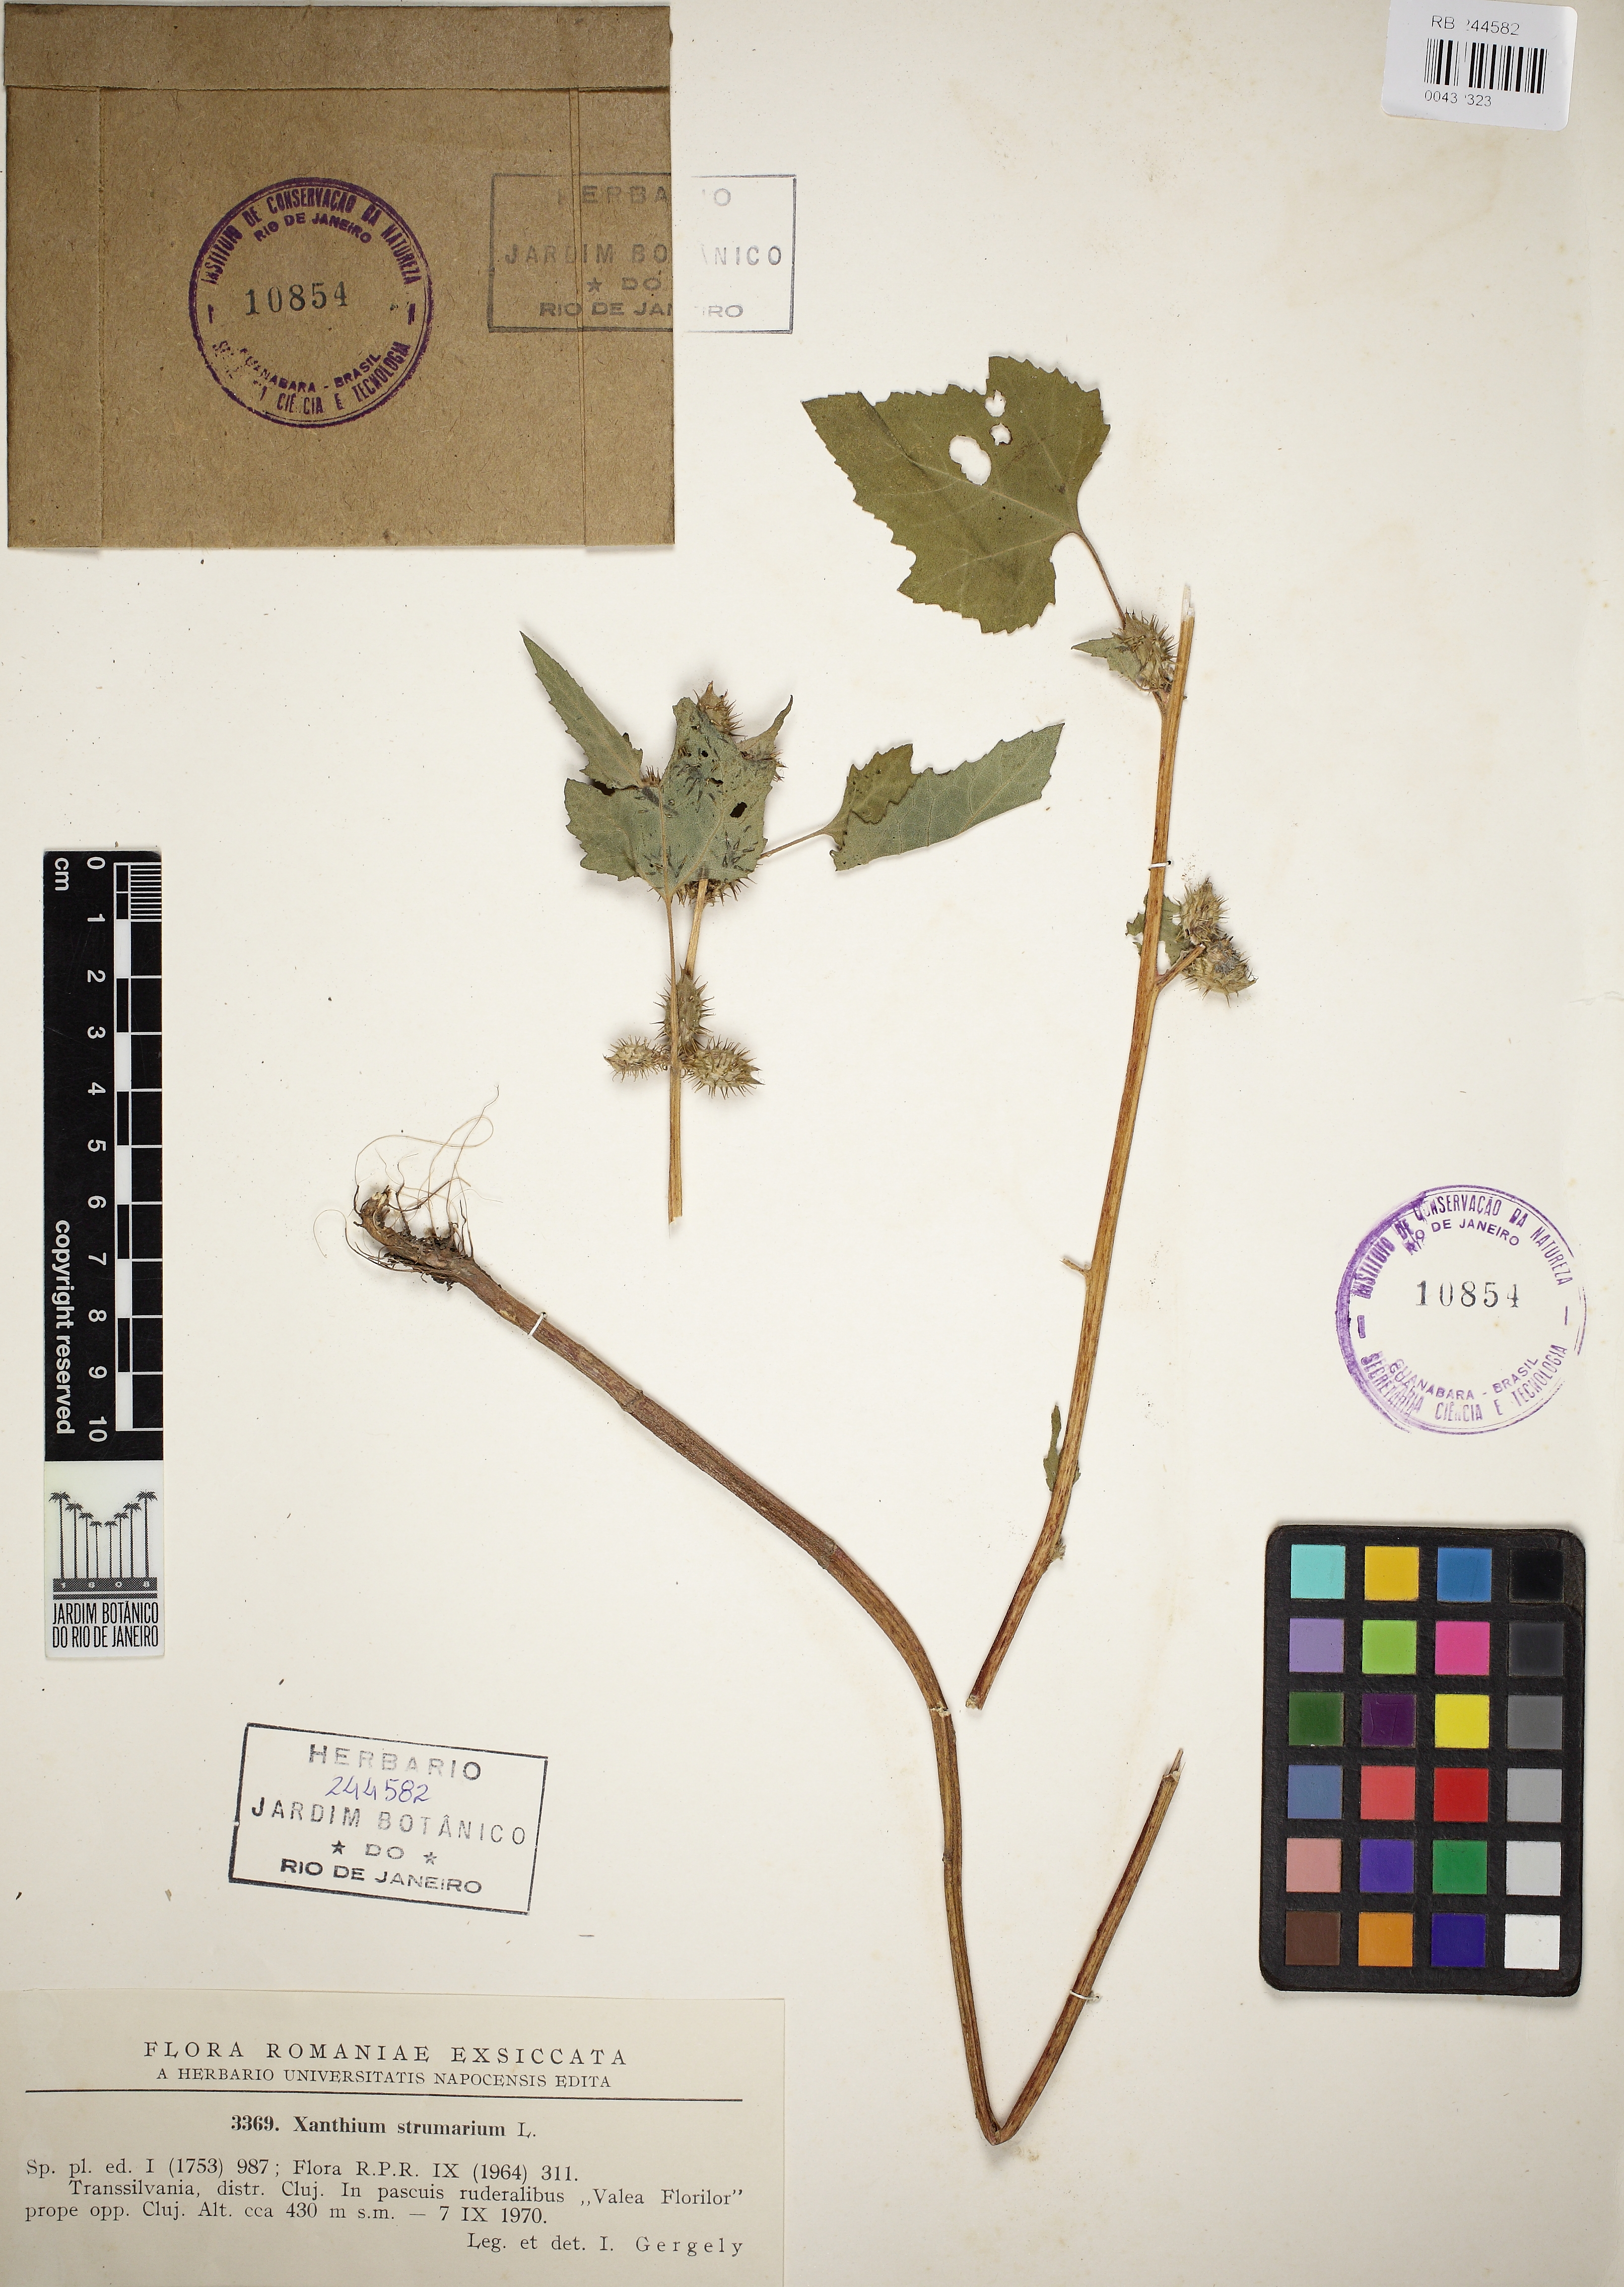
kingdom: Plantae
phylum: Tracheophyta
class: Magnoliopsida
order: Asterales
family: Asteraceae
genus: Xanthium
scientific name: Xanthium strumarium
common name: Rough cocklebur
